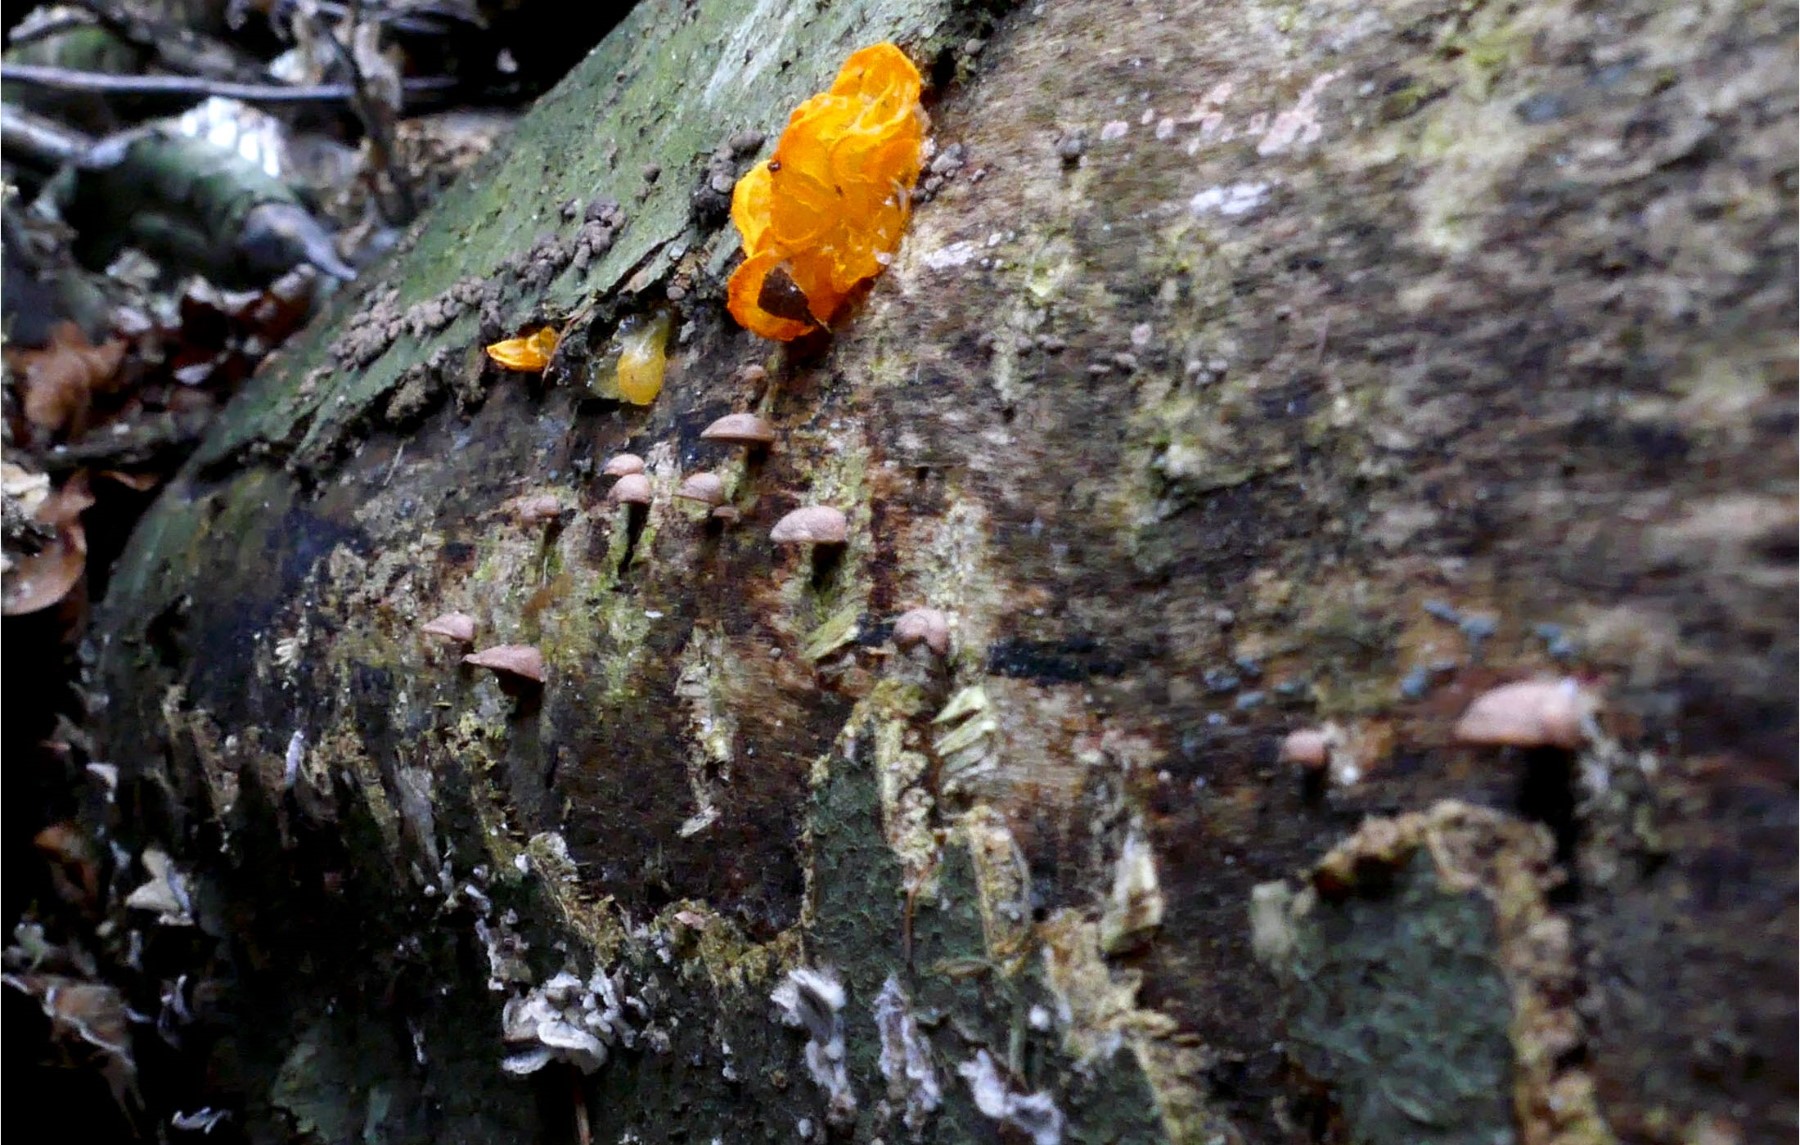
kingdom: Fungi
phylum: Basidiomycota
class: Agaricomycetes
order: Agaricales
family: Strophariaceae
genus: Deconica
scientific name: Deconica horizontalis
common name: ved-stråhat
